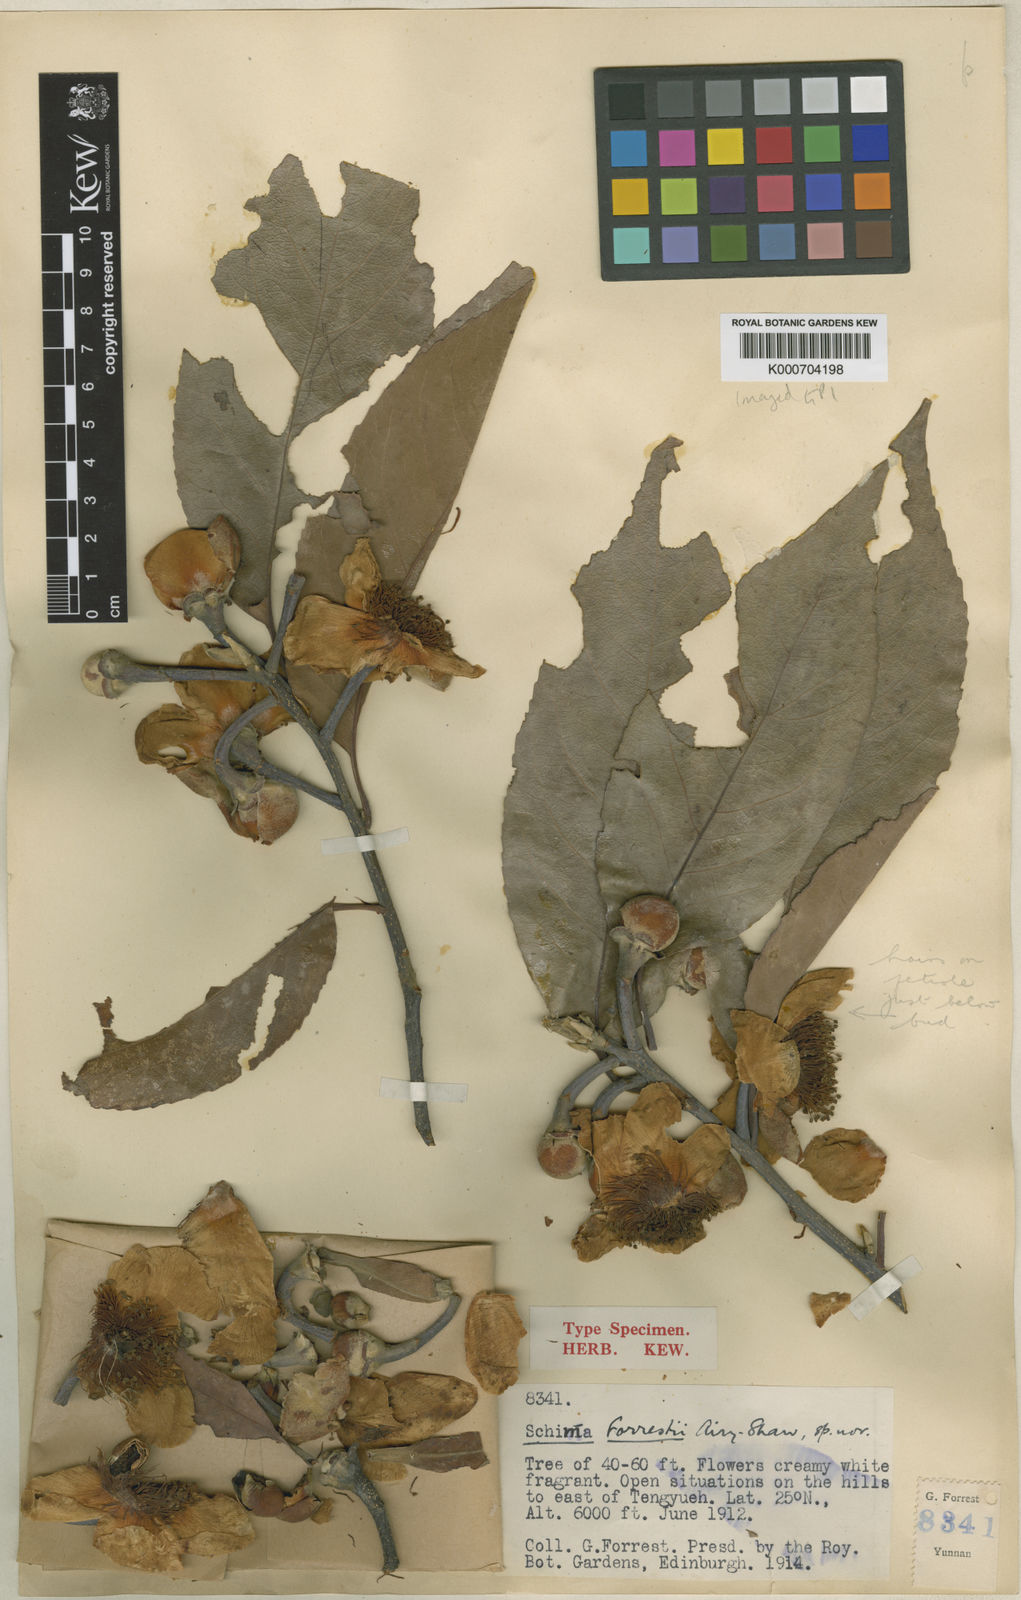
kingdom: Plantae
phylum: Tracheophyta
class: Magnoliopsida
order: Ericales
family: Theaceae
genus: Schima
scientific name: Schima khasiana
